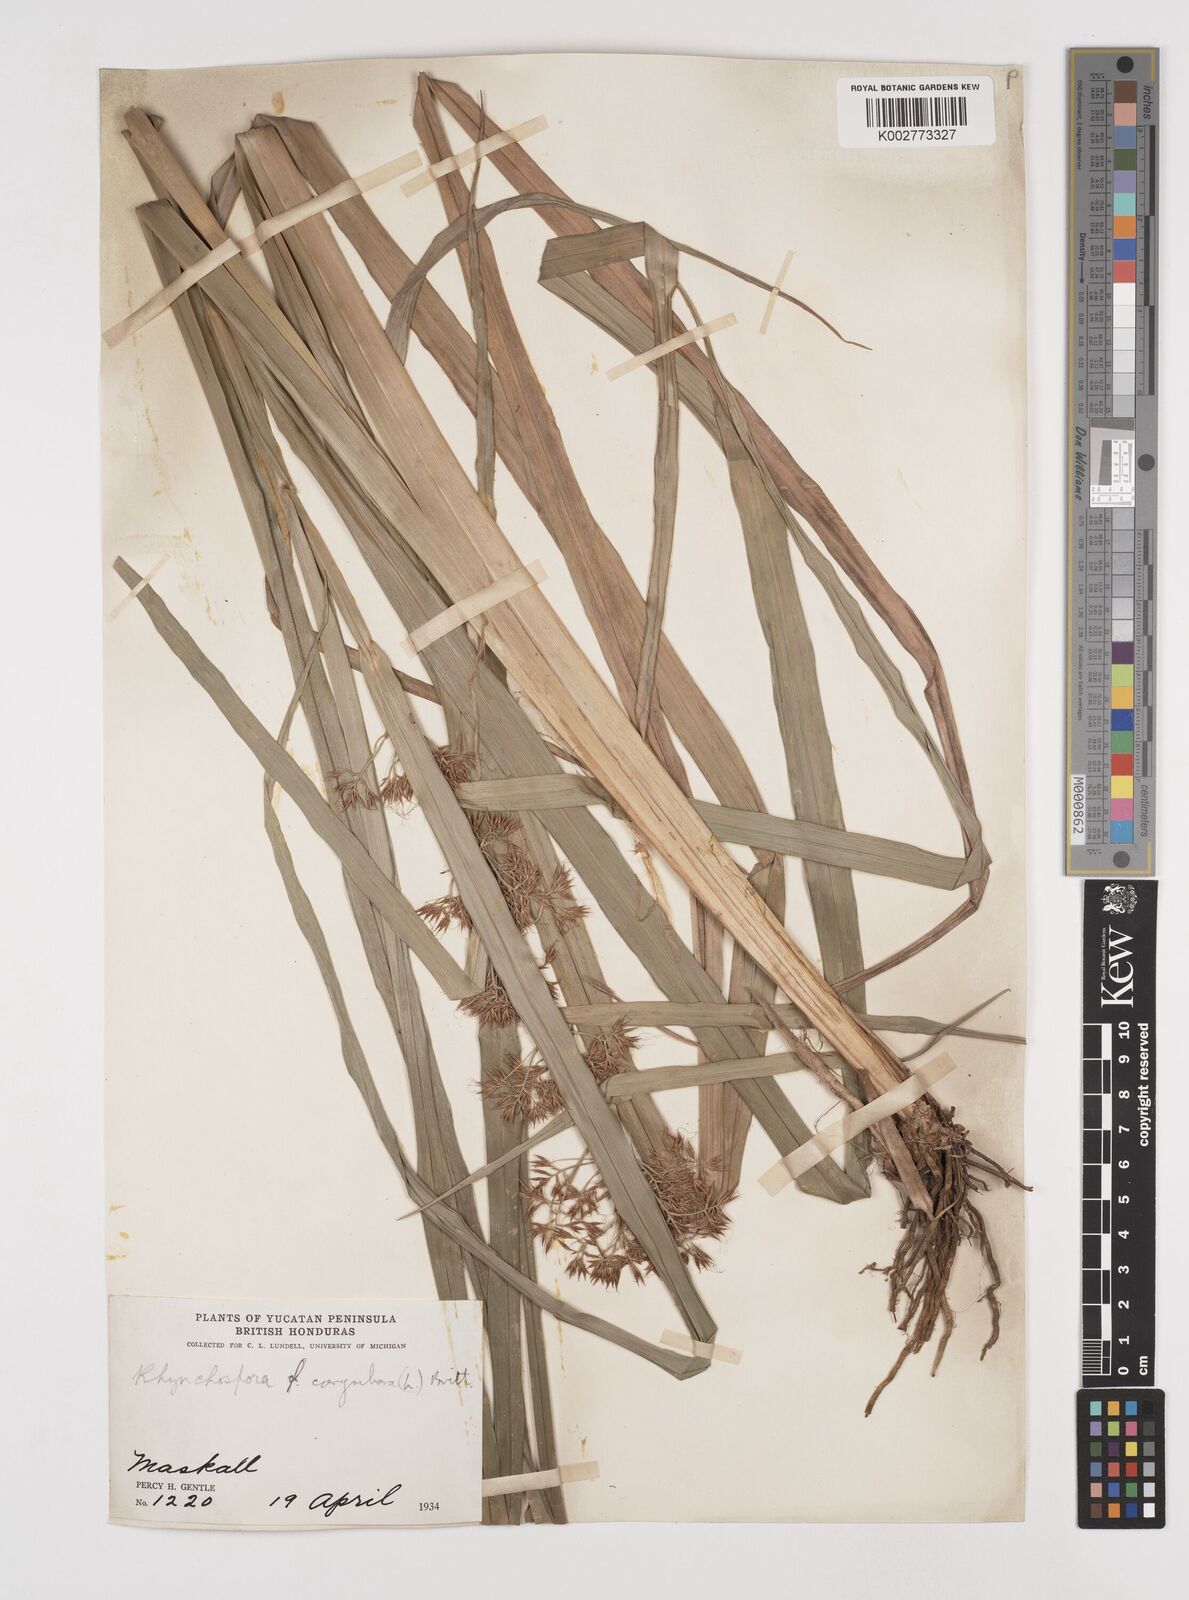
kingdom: Plantae
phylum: Tracheophyta
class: Liliopsida
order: Poales
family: Cyperaceae
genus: Rhynchospora
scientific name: Rhynchospora corymbosa
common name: Golden beak sedge
